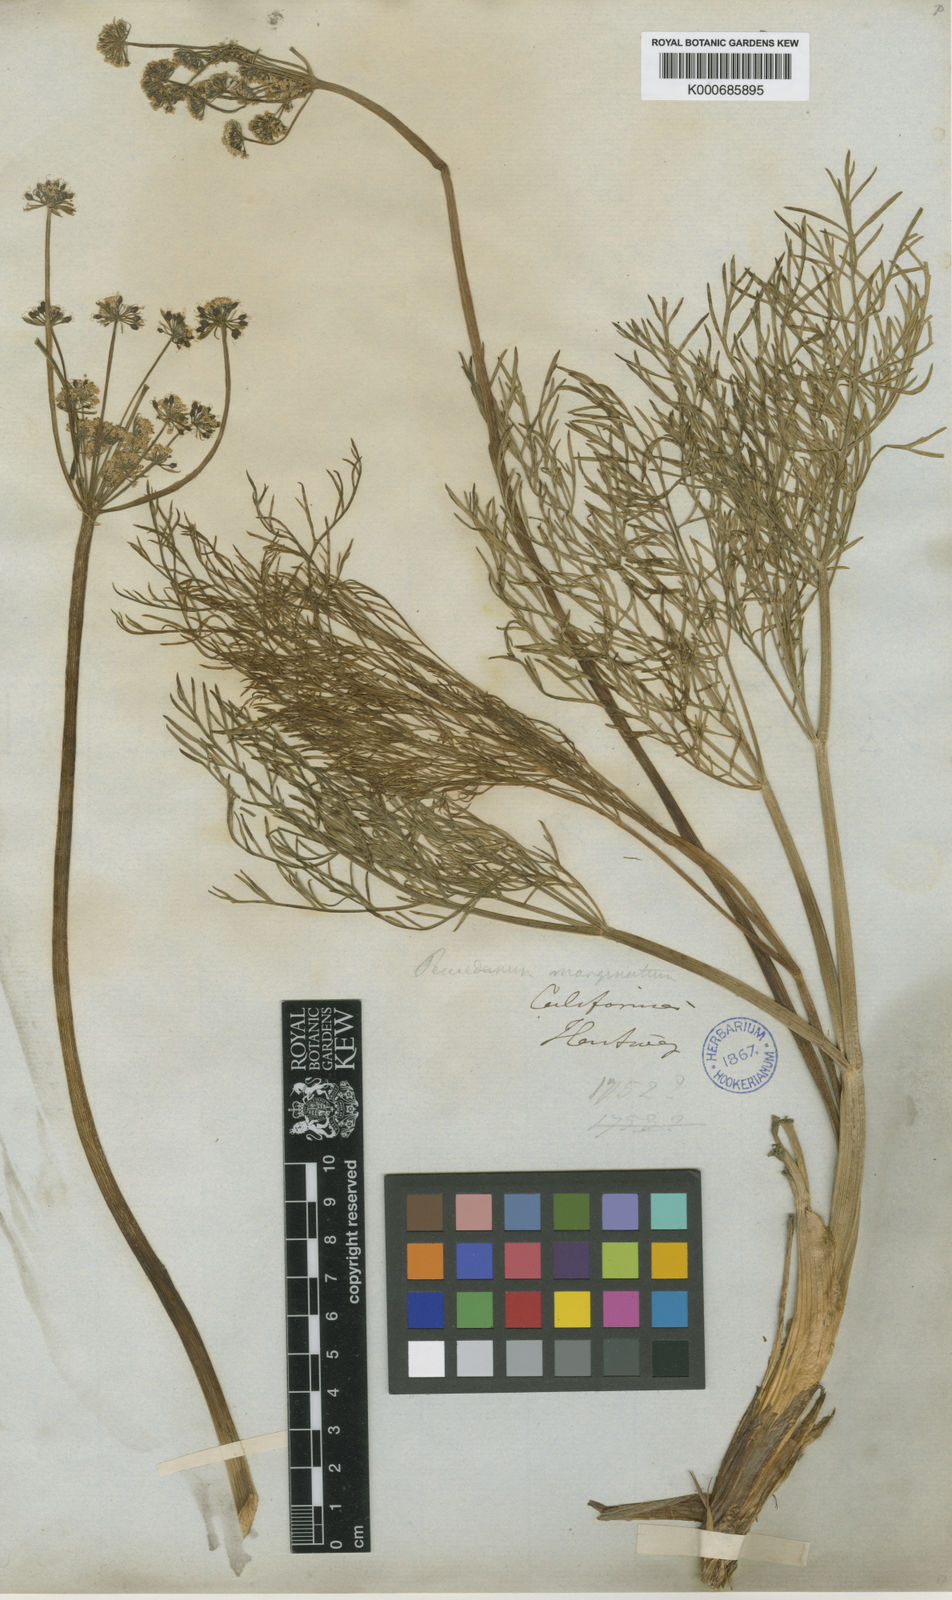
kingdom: Plantae
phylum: Tracheophyta
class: Magnoliopsida
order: Apiales
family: Apiaceae
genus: Lomatium
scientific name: Lomatium marginatum
